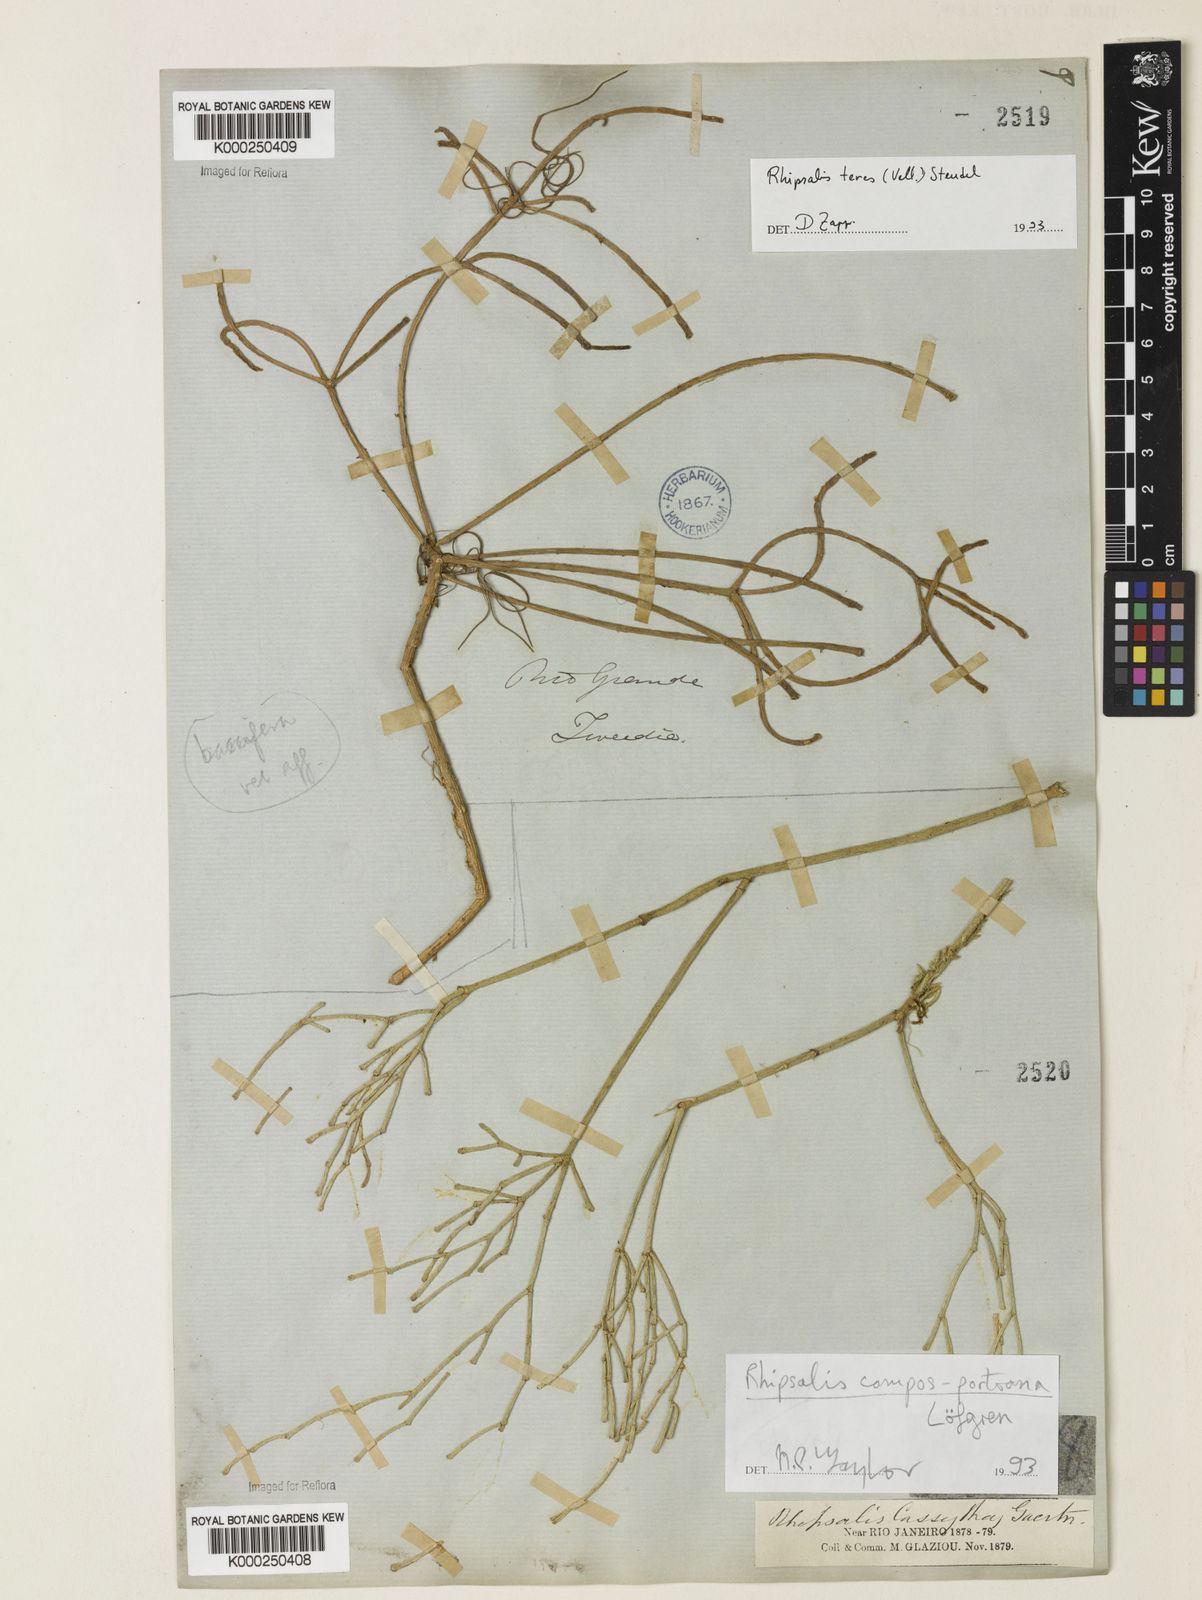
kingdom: Plantae
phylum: Tracheophyta
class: Magnoliopsida
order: Caryophyllales
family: Cactaceae
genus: Rhipsalis
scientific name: Rhipsalis
